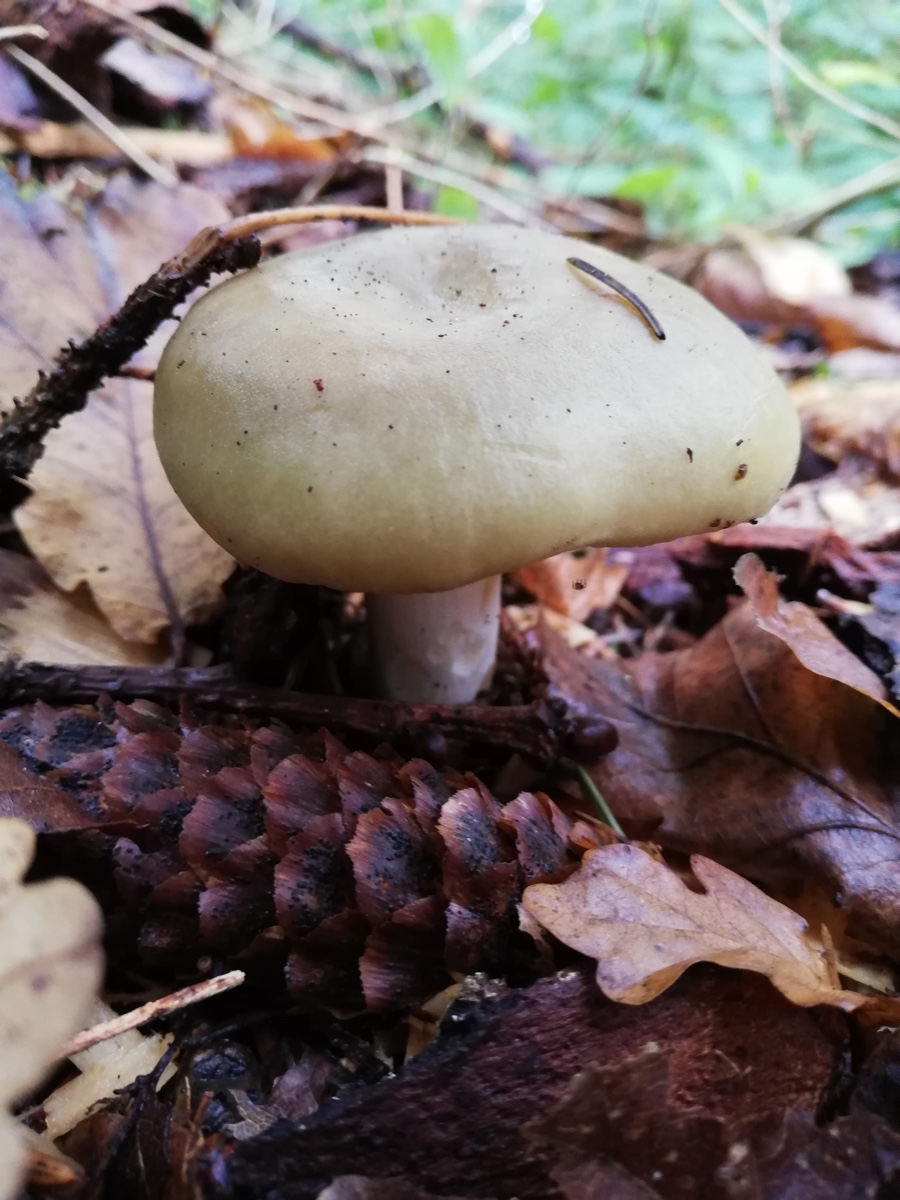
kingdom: Fungi
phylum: Basidiomycota
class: Agaricomycetes
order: Agaricales
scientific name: Agaricales
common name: champignonordenen
